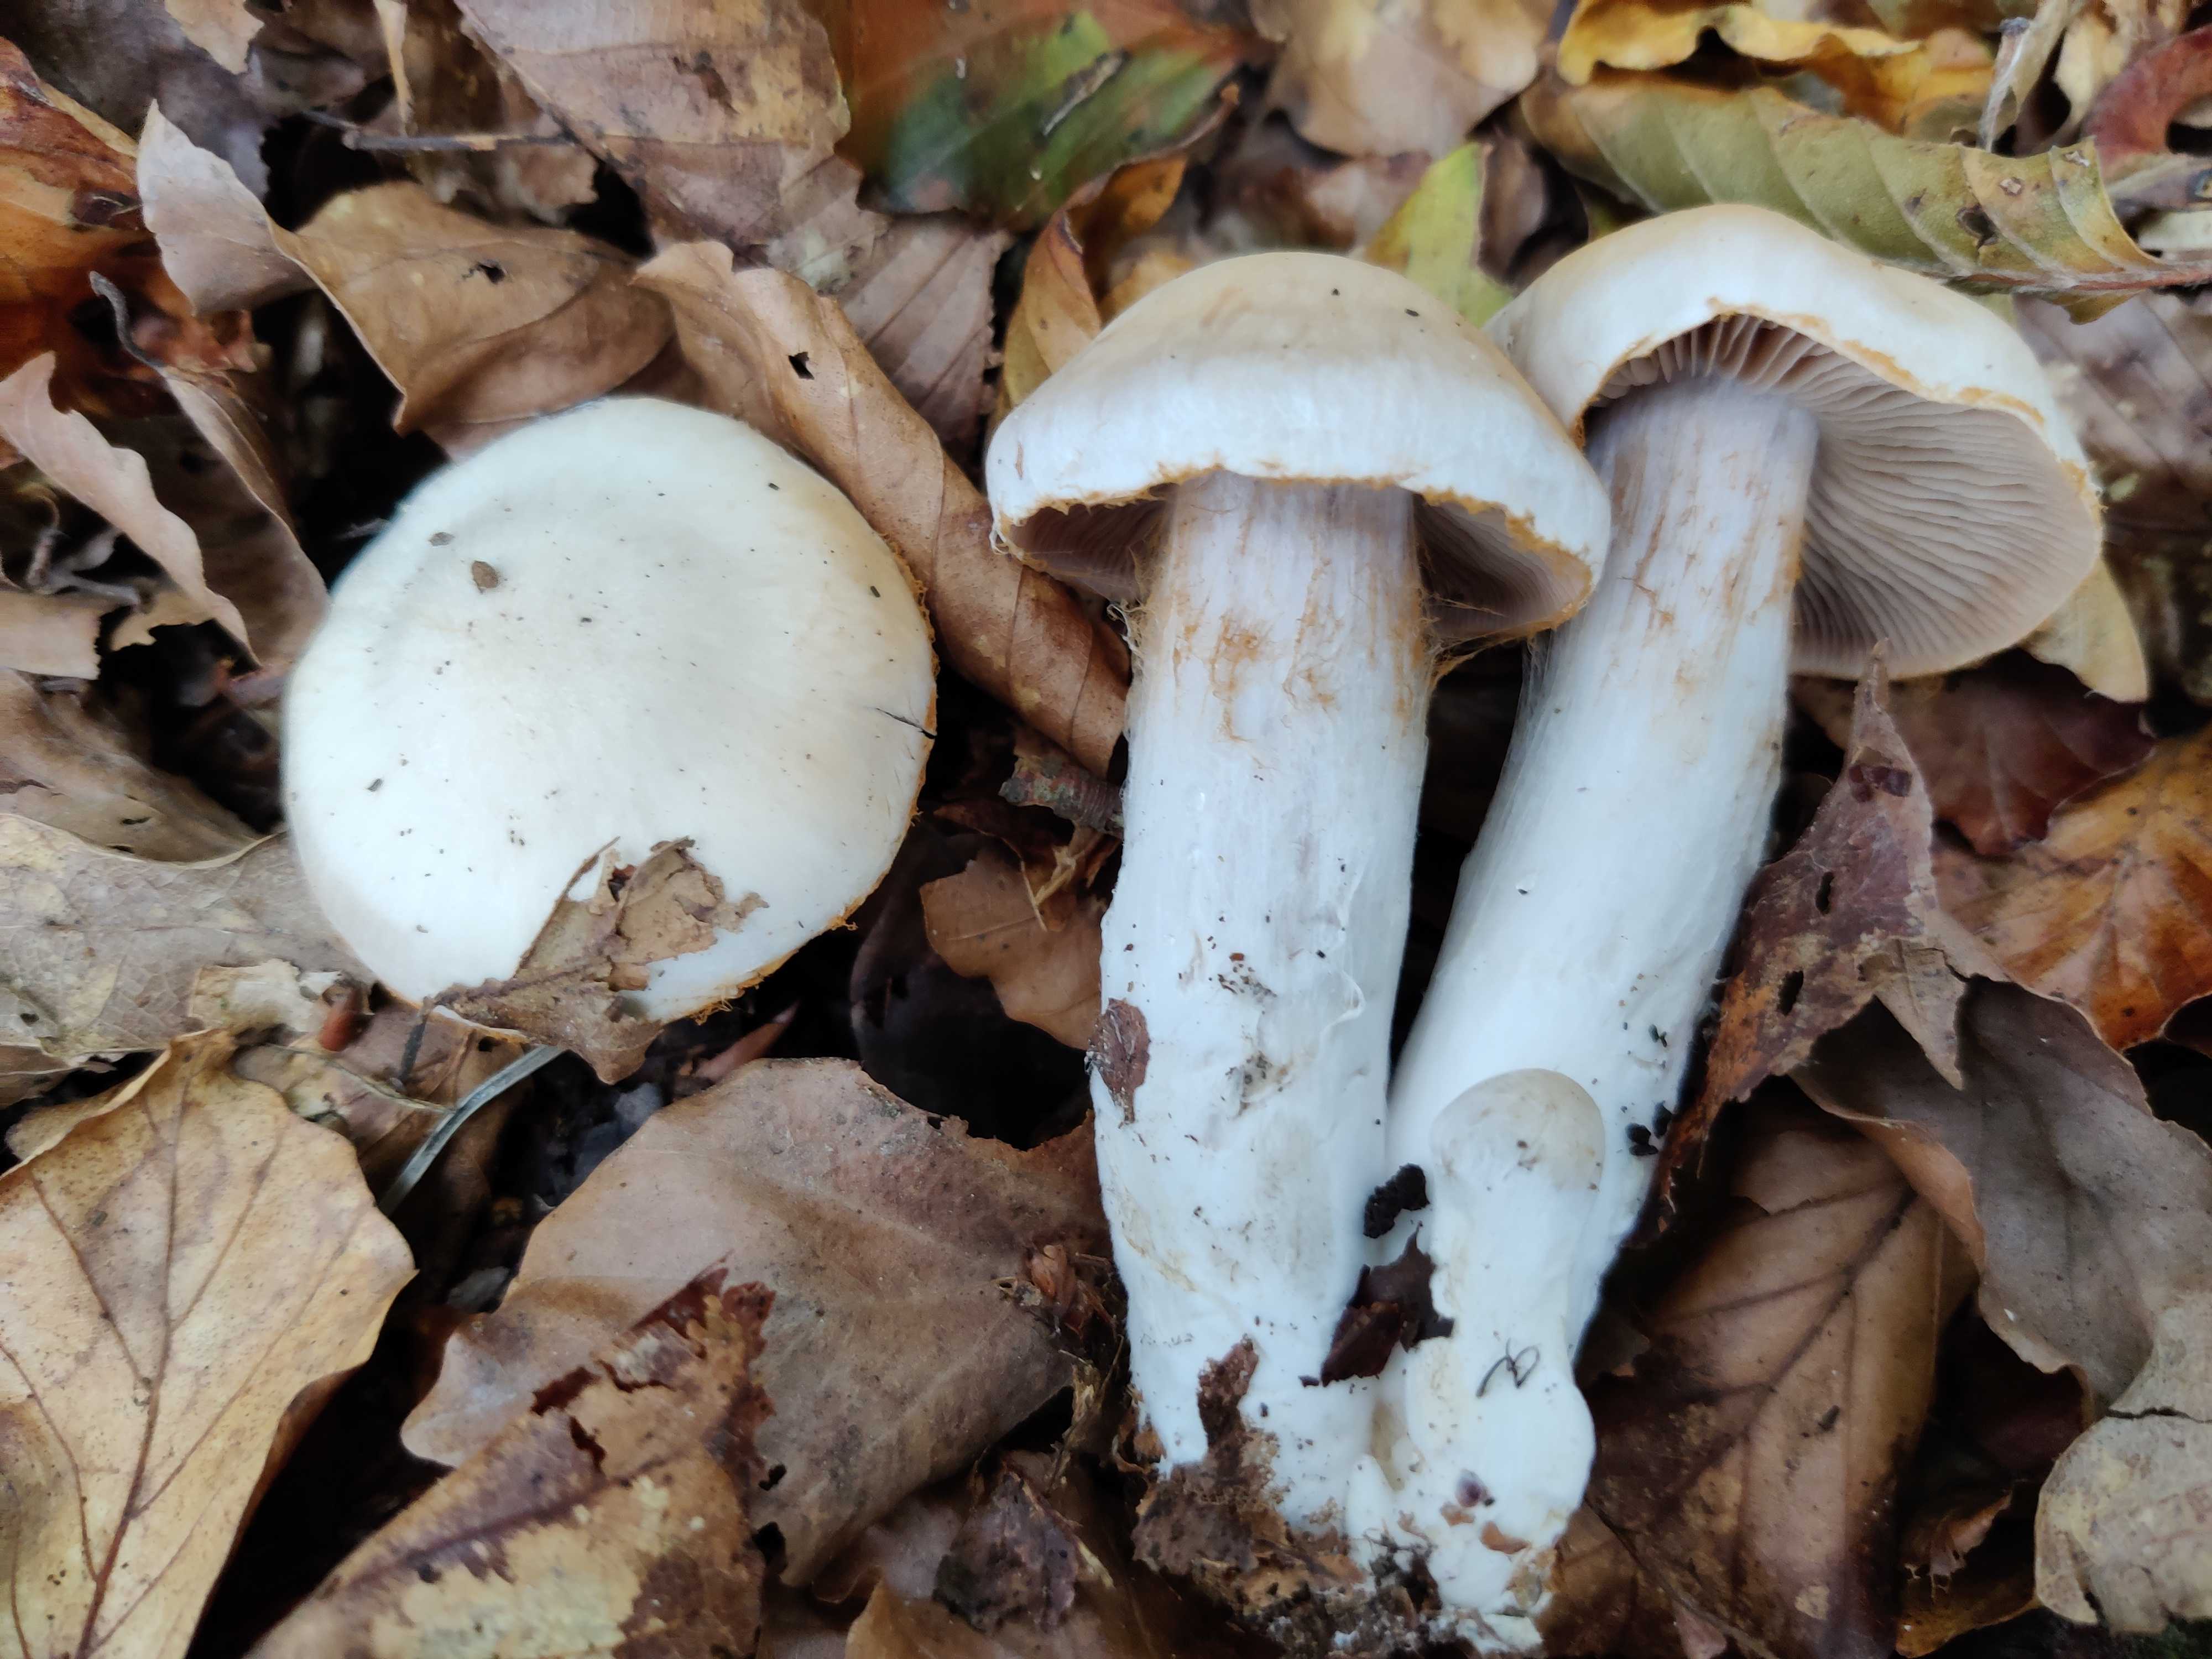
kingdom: Fungi
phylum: Basidiomycota
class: Agaricomycetes
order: Agaricales
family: Cortinariaceae
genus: Cortinarius
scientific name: Cortinarius turgidus
